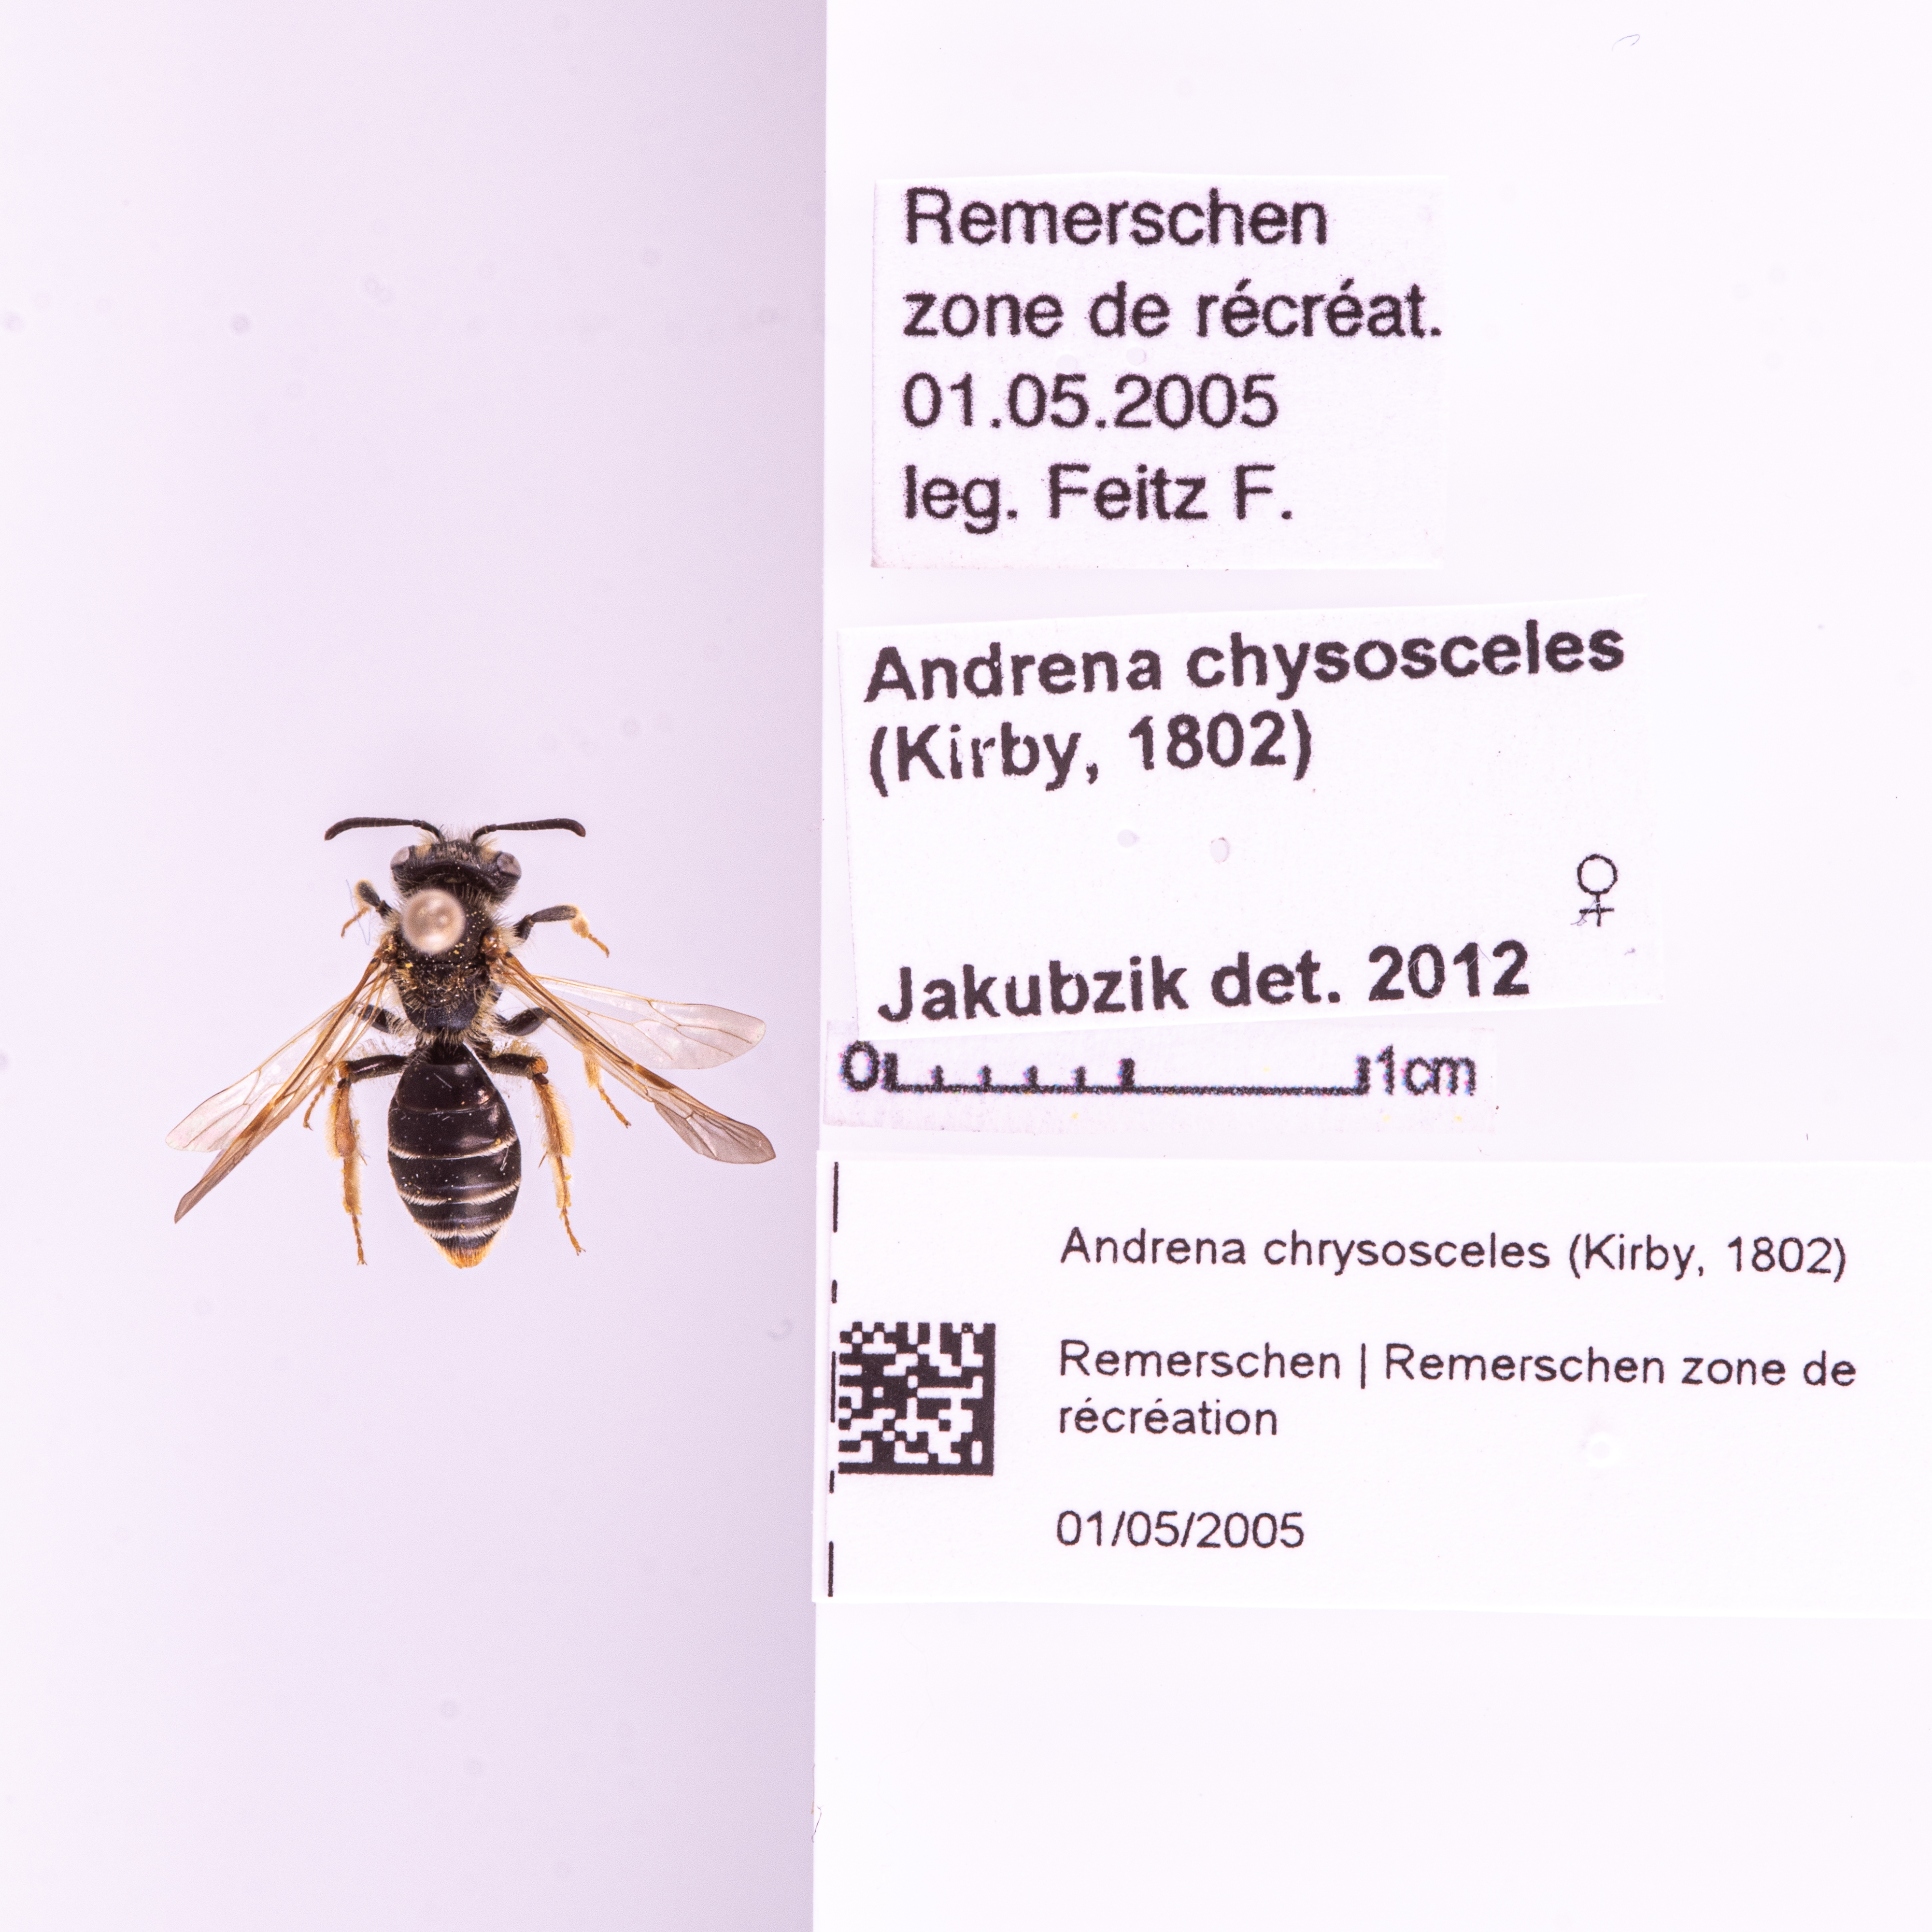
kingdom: Animalia
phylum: Arthropoda
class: Insecta
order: Hymenoptera
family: Andrenidae
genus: Andrena
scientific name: Andrena chrysosceles
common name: Hawthorne mining bee
